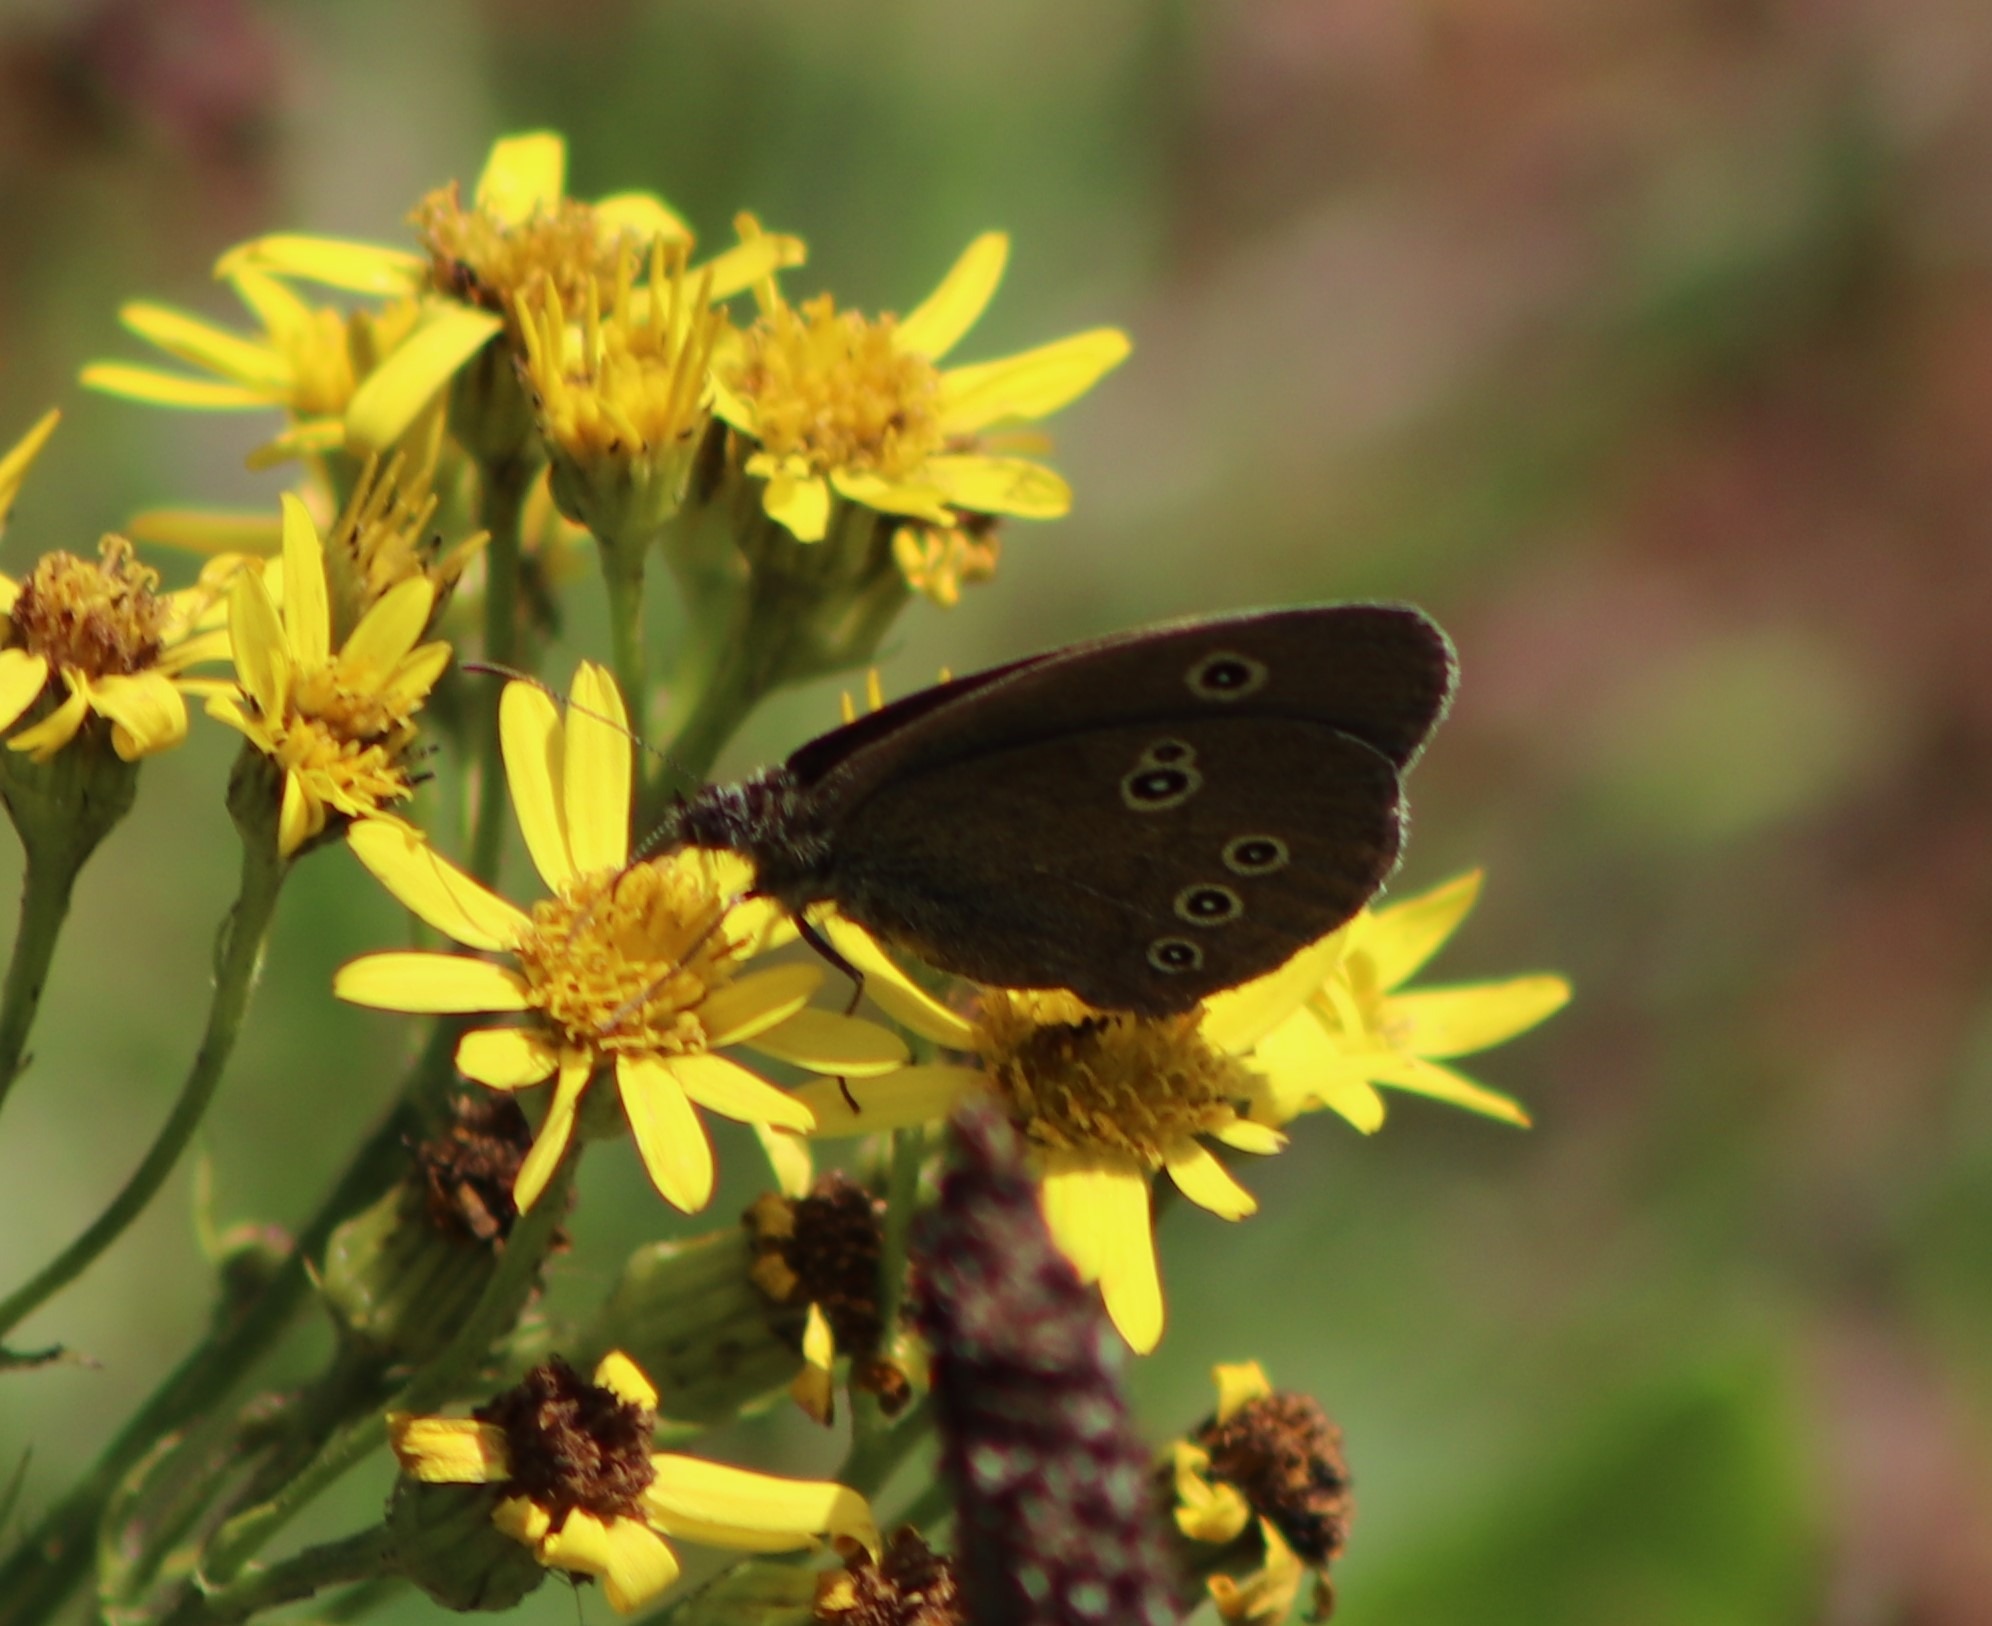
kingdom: Animalia
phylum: Arthropoda
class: Insecta
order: Lepidoptera
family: Nymphalidae
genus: Aphantopus
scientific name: Aphantopus hyperantus
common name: Engrandøje
